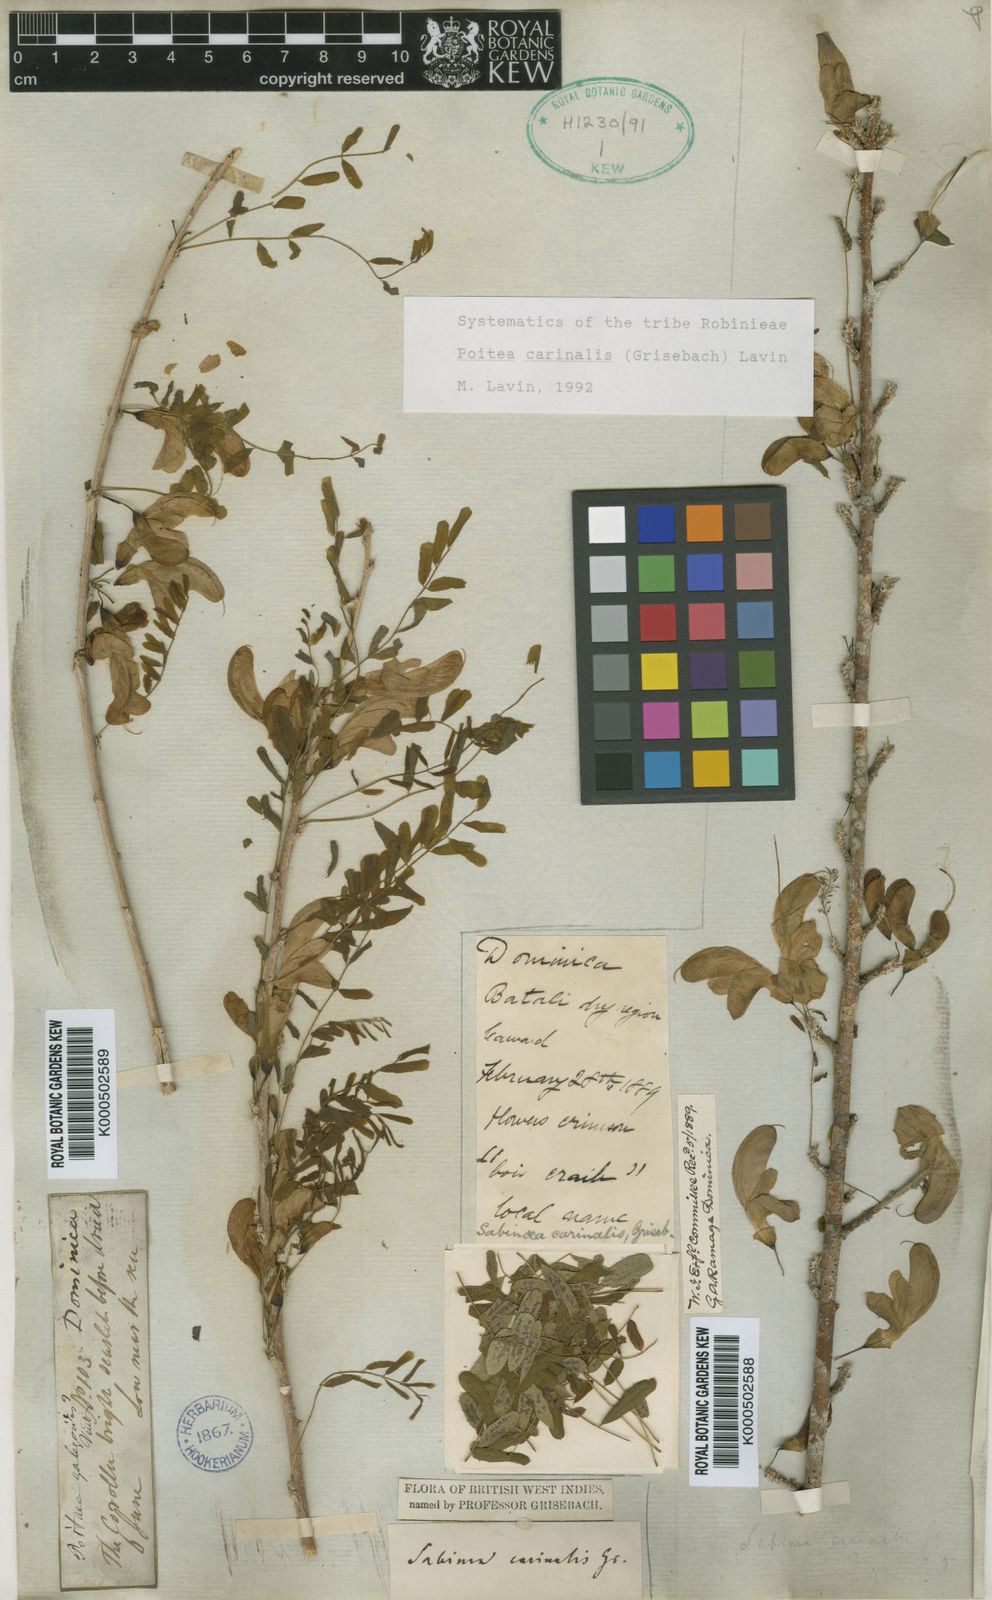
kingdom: Plantae
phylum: Tracheophyta
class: Magnoliopsida
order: Fabales
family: Fabaceae
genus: Poitea
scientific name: Poitea carinalis
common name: Caribwood
